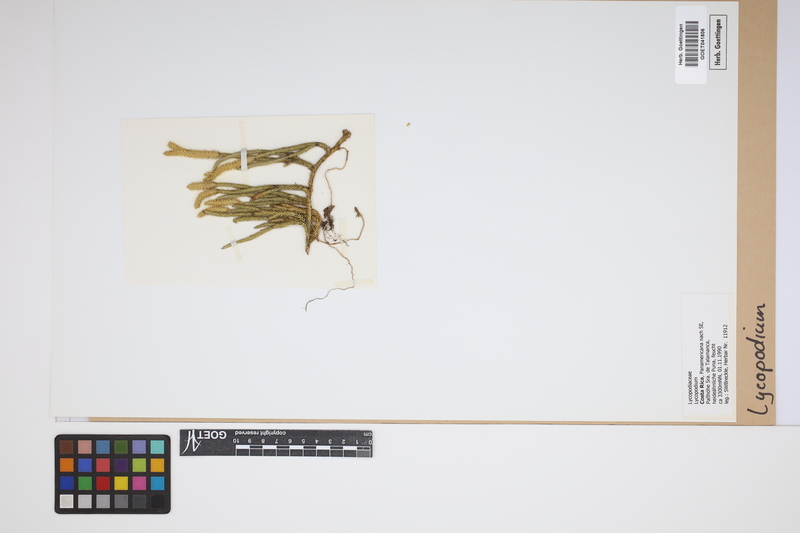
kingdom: Plantae
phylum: Tracheophyta
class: Lycopodiopsida
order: Lycopodiales
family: Lycopodiaceae
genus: Lycopodium
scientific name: Lycopodium
